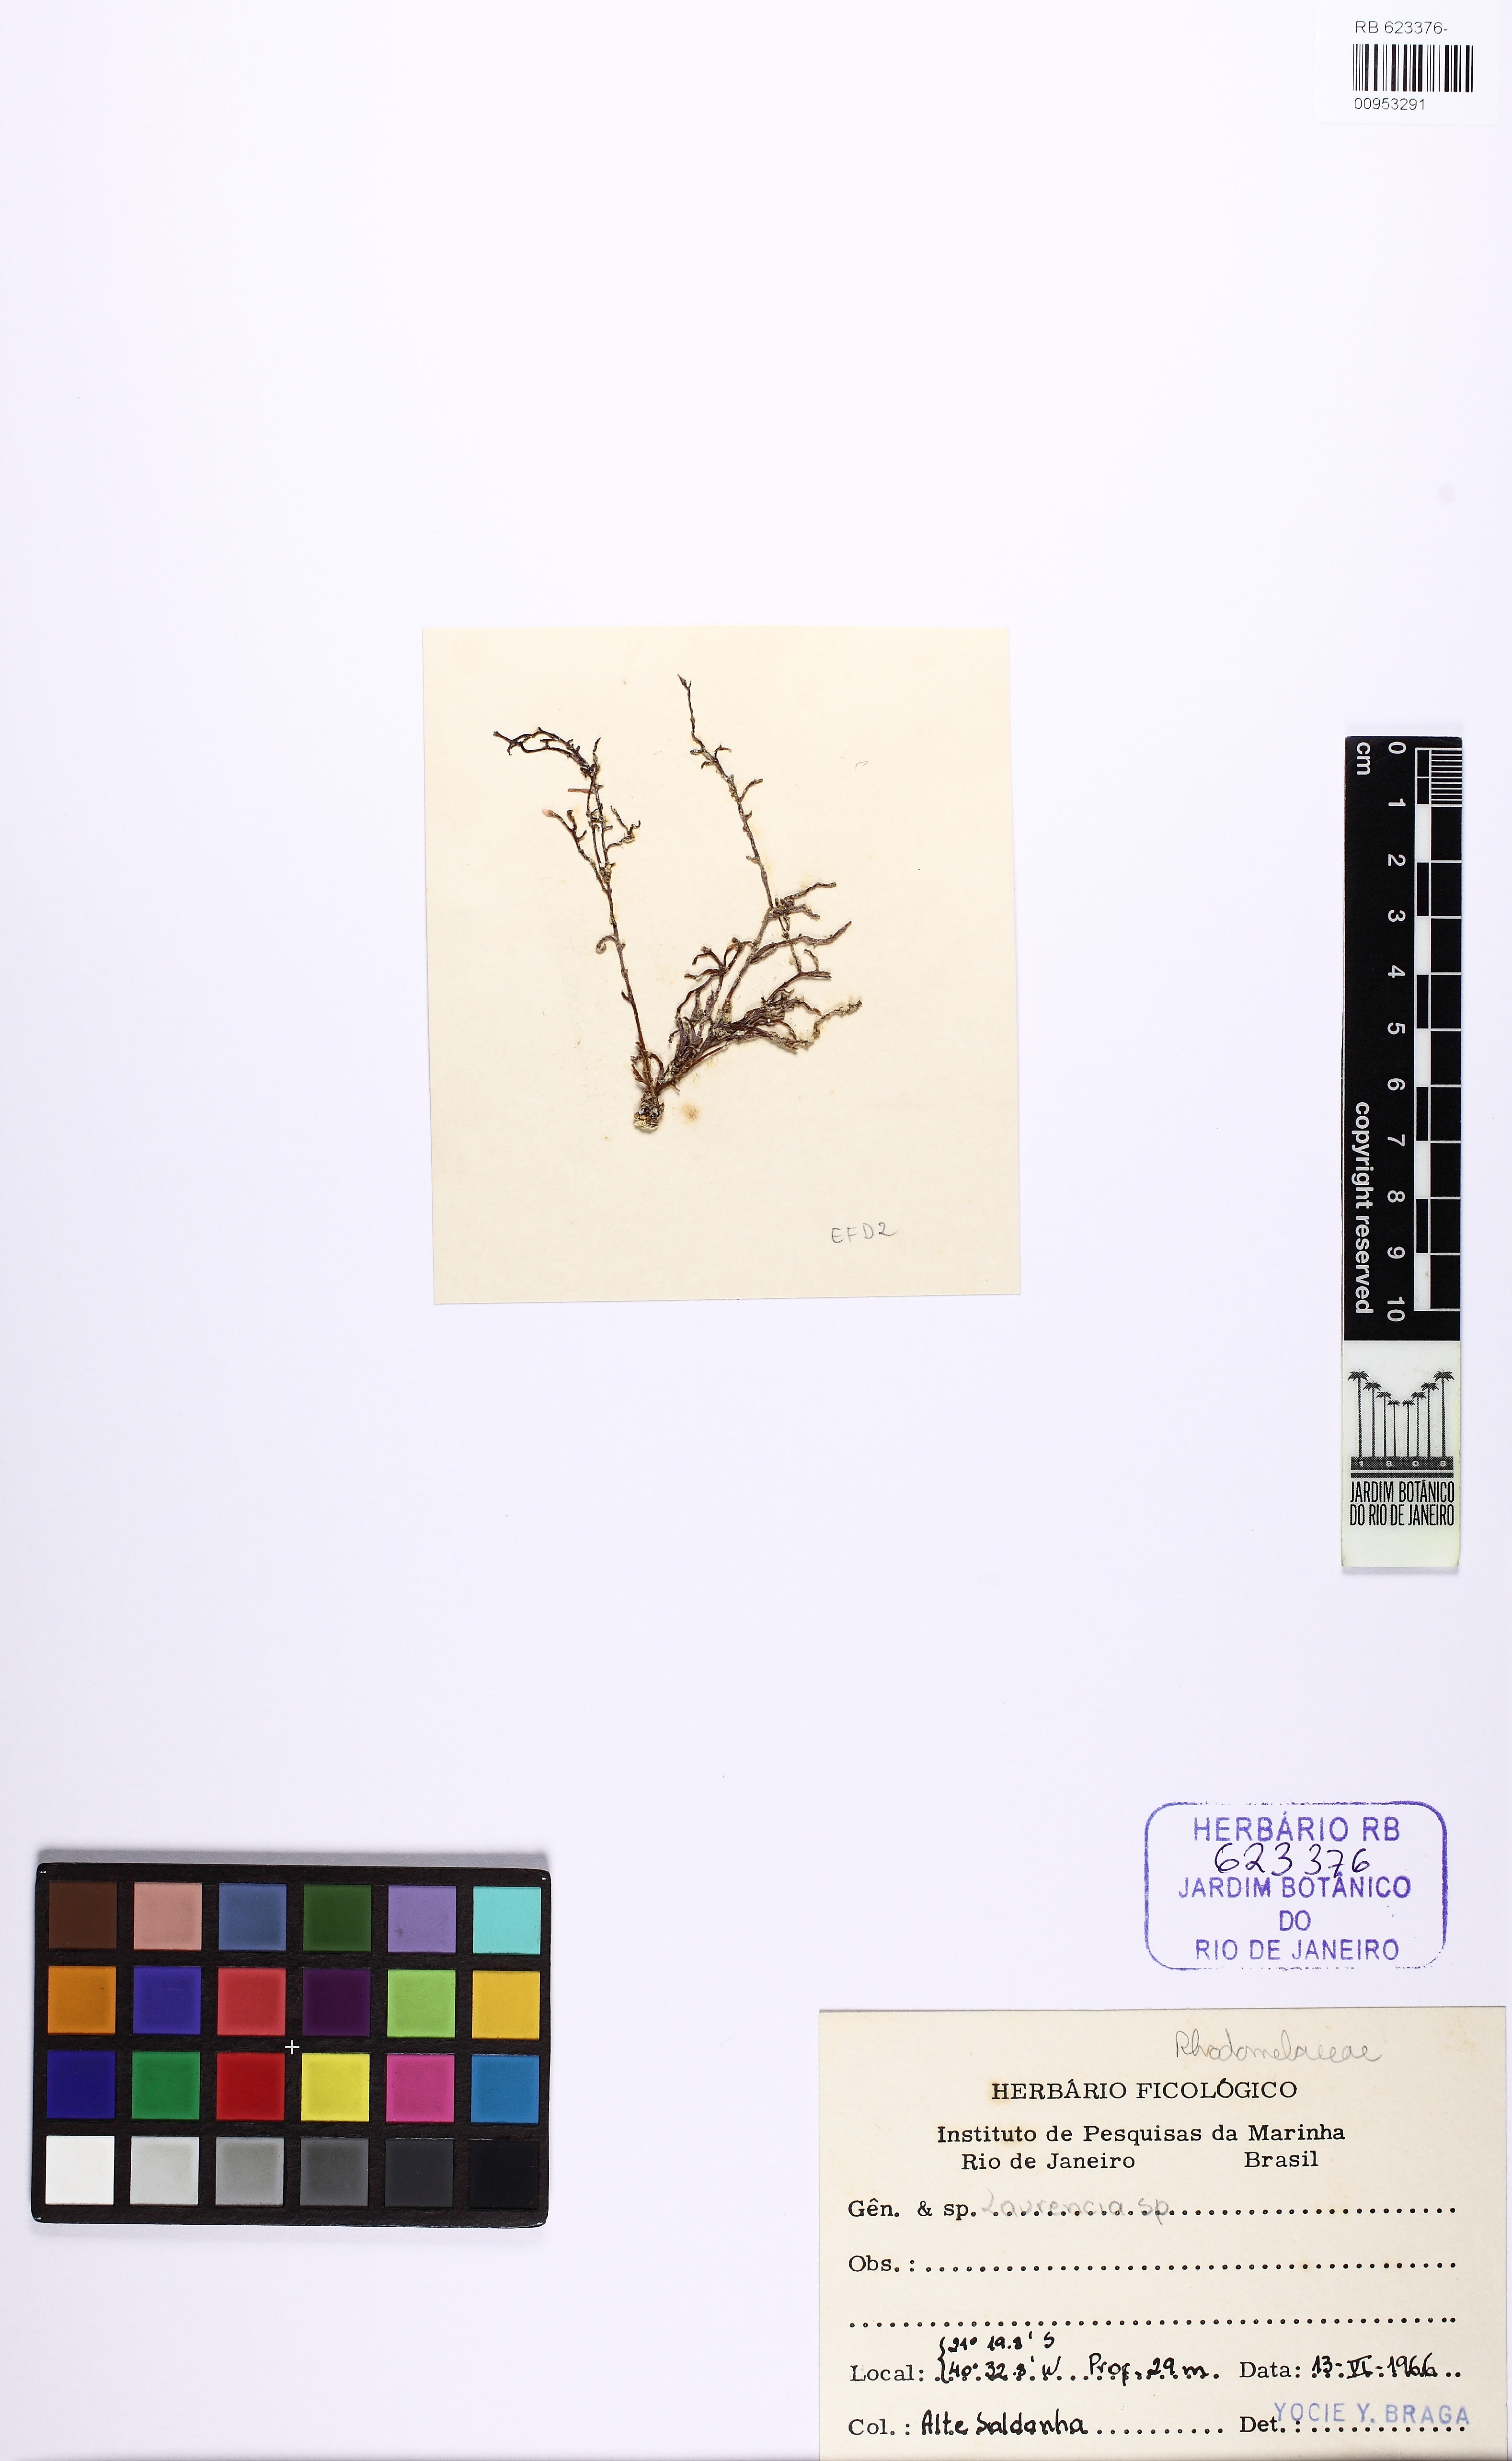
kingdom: Plantae
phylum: Rhodophyta
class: Florideophyceae
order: Ceramiales
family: Rhodomelaceae
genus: Laurencia
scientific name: Laurencia
